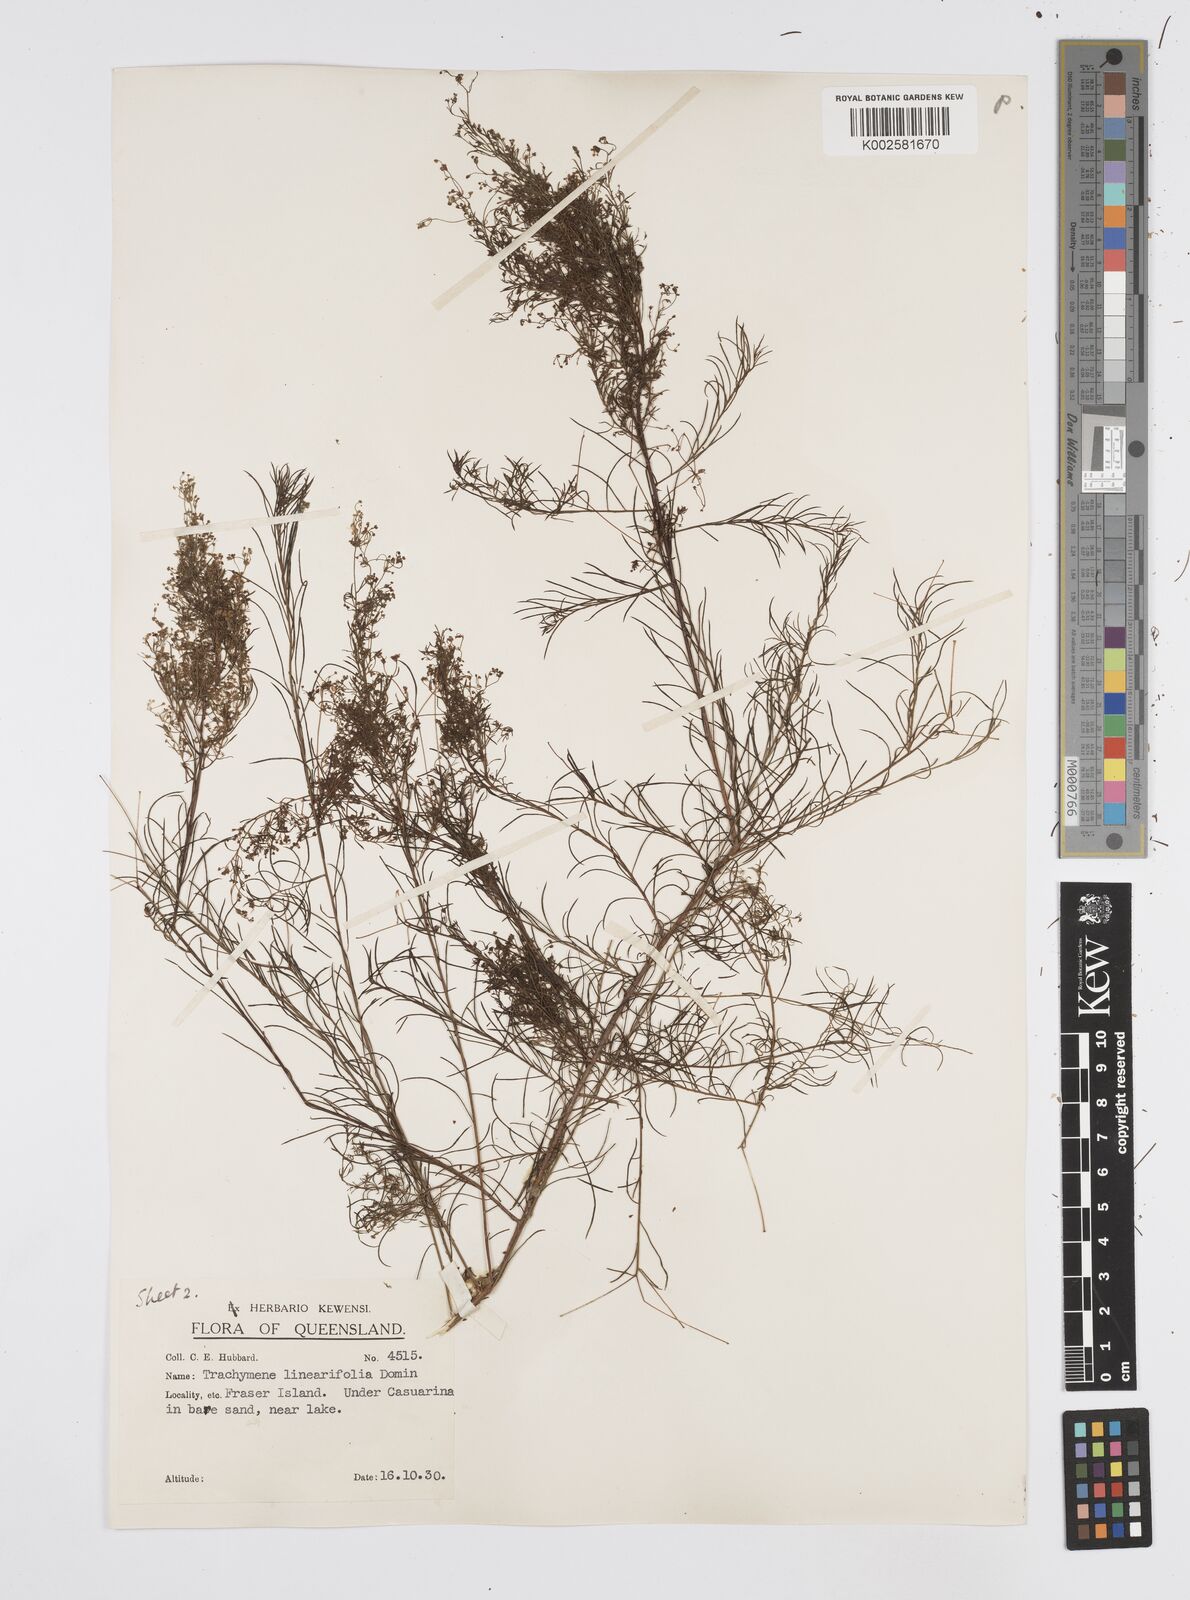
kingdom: Plantae
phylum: Tracheophyta
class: Magnoliopsida
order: Apiales
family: Apiaceae
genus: Platysace
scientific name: Platysace linearifolia
